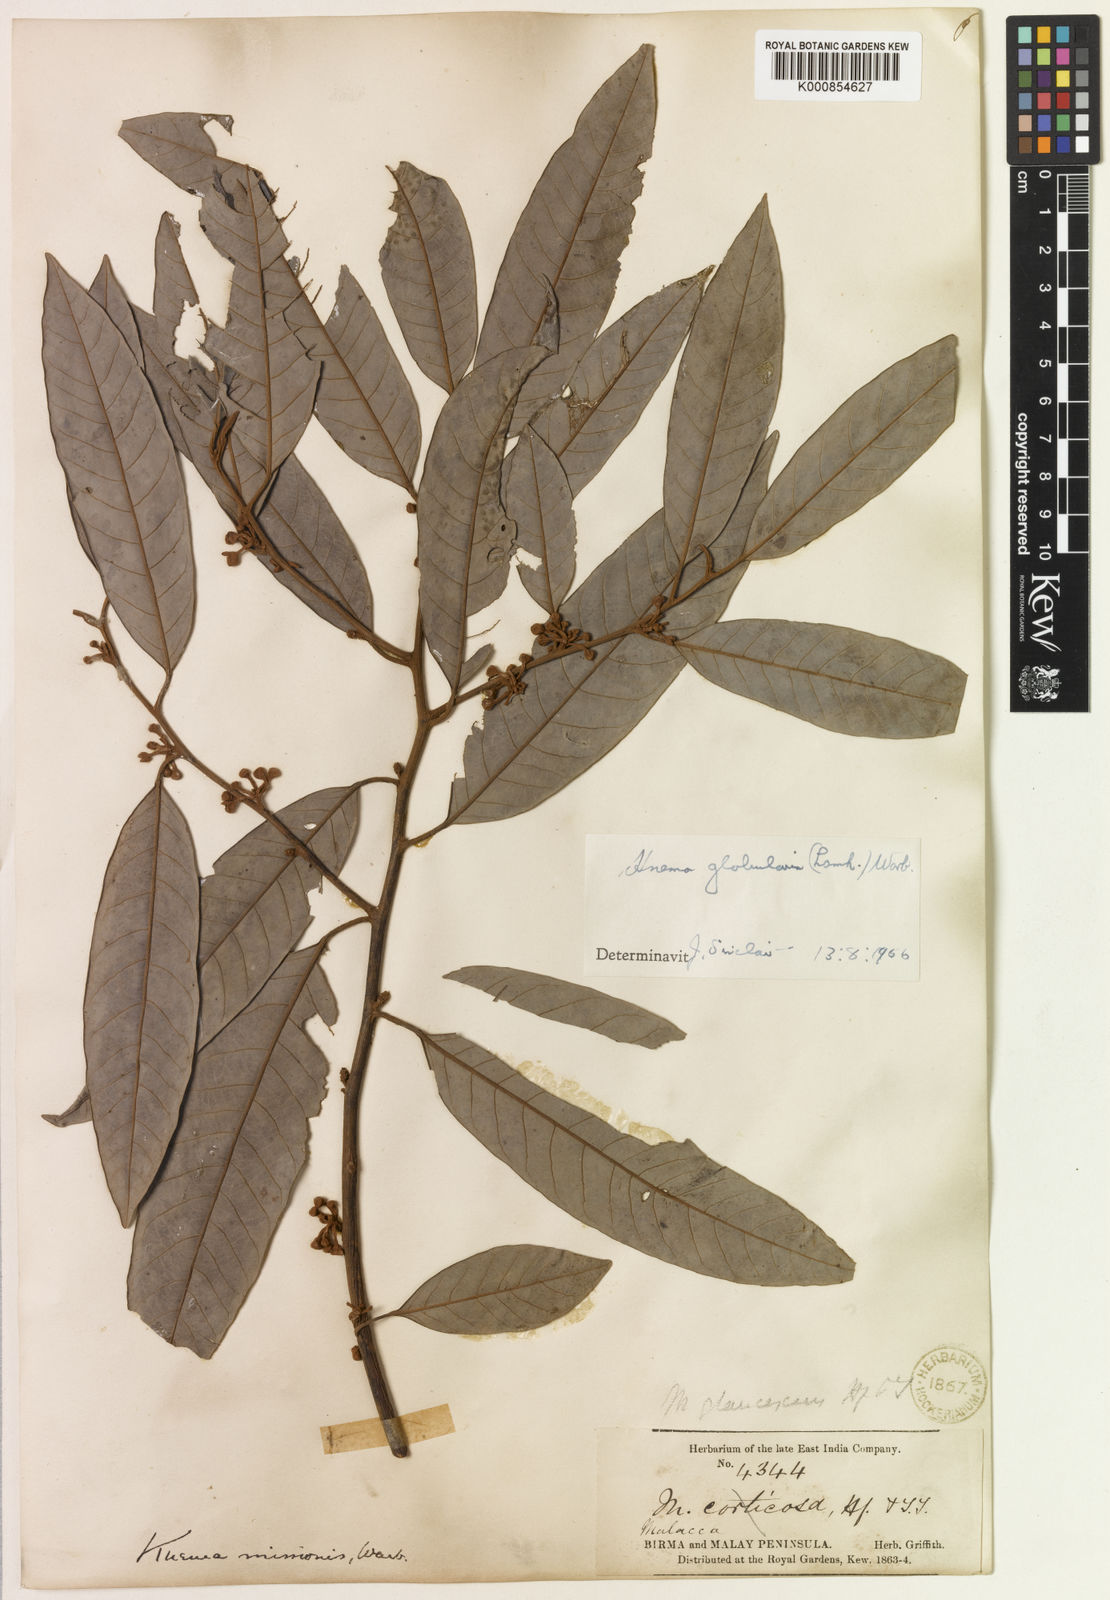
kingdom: Plantae
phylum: Tracheophyta
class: Magnoliopsida
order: Magnoliales
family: Myristicaceae
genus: Knema
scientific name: Knema globularia
